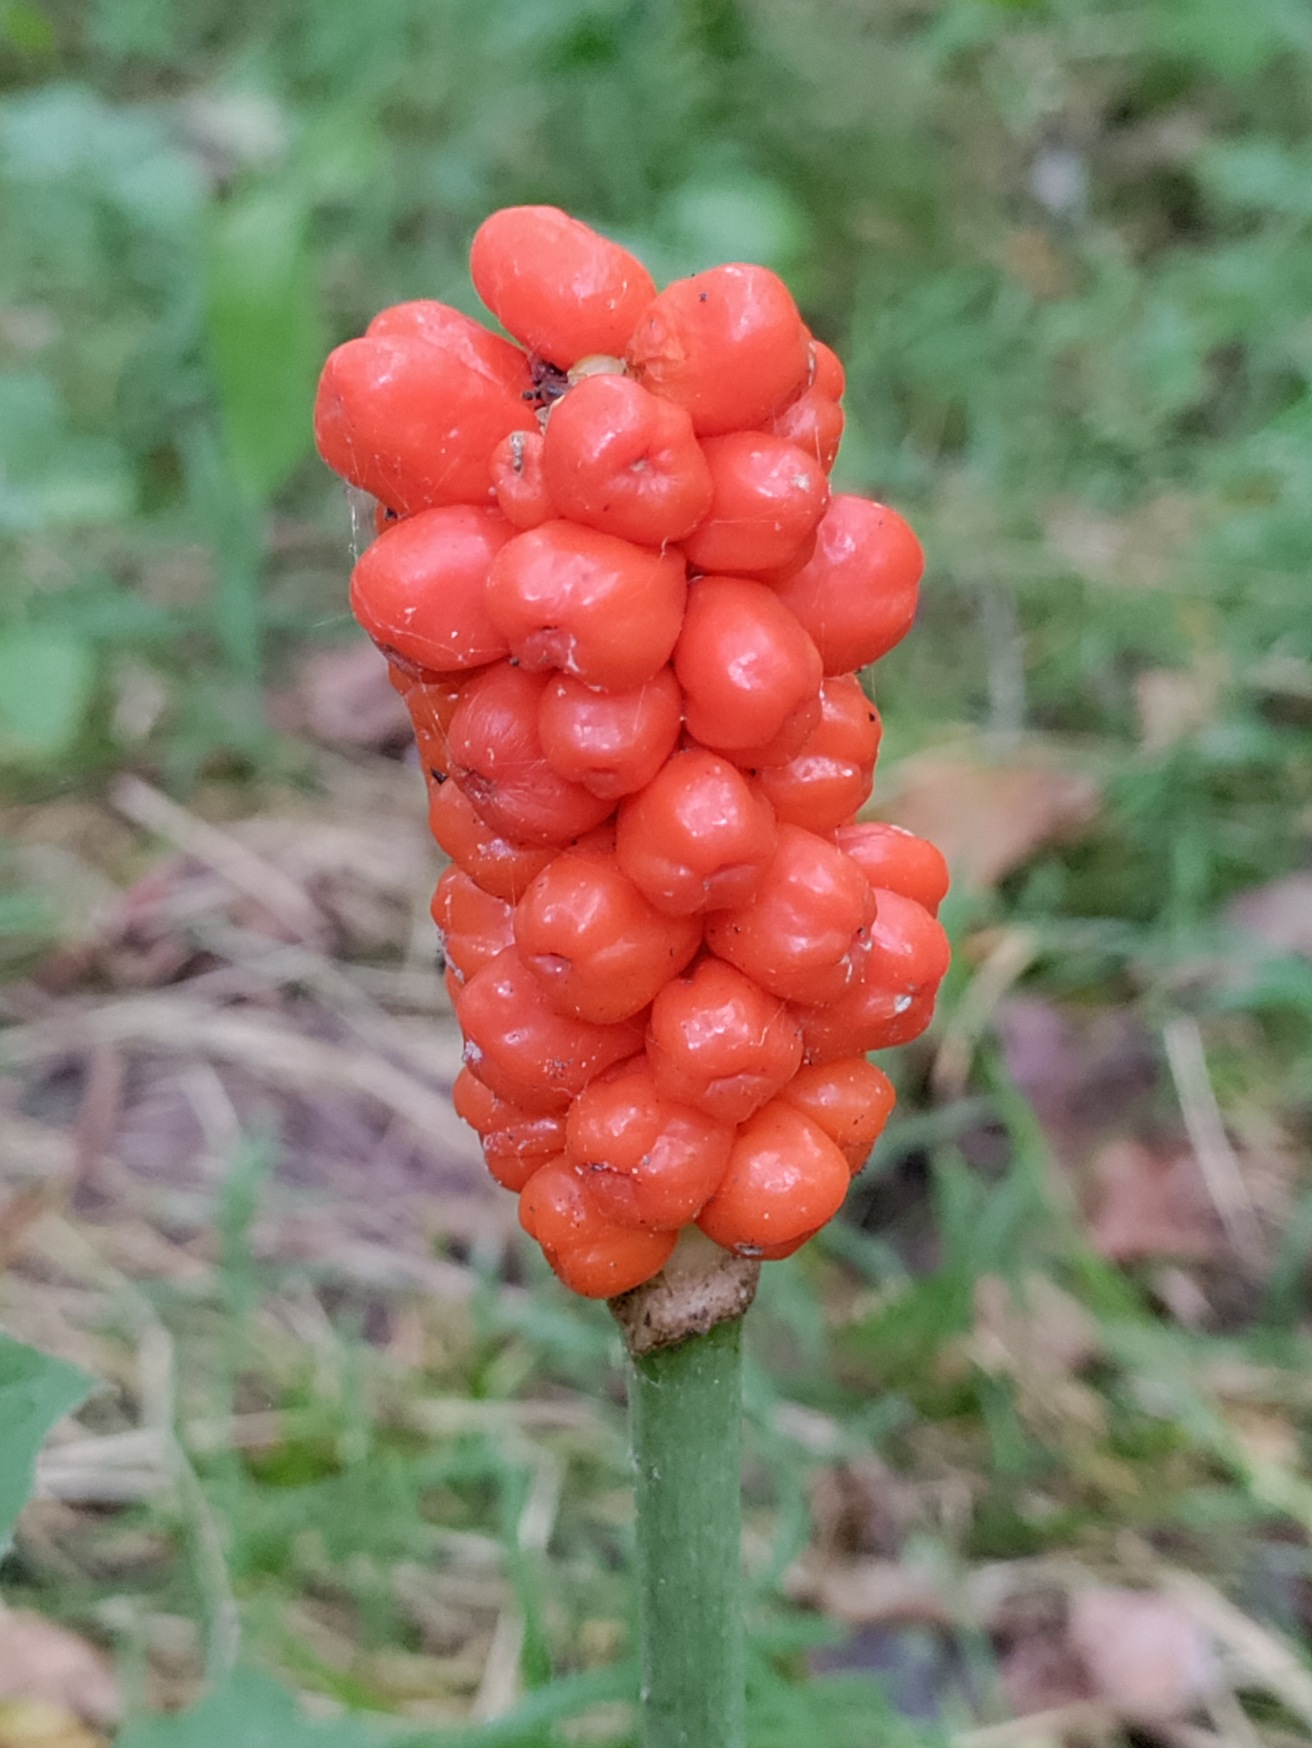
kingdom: Plantae
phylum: Tracheophyta
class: Liliopsida
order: Alismatales
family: Araceae
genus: Arum
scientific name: Arum
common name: Arumslægten
